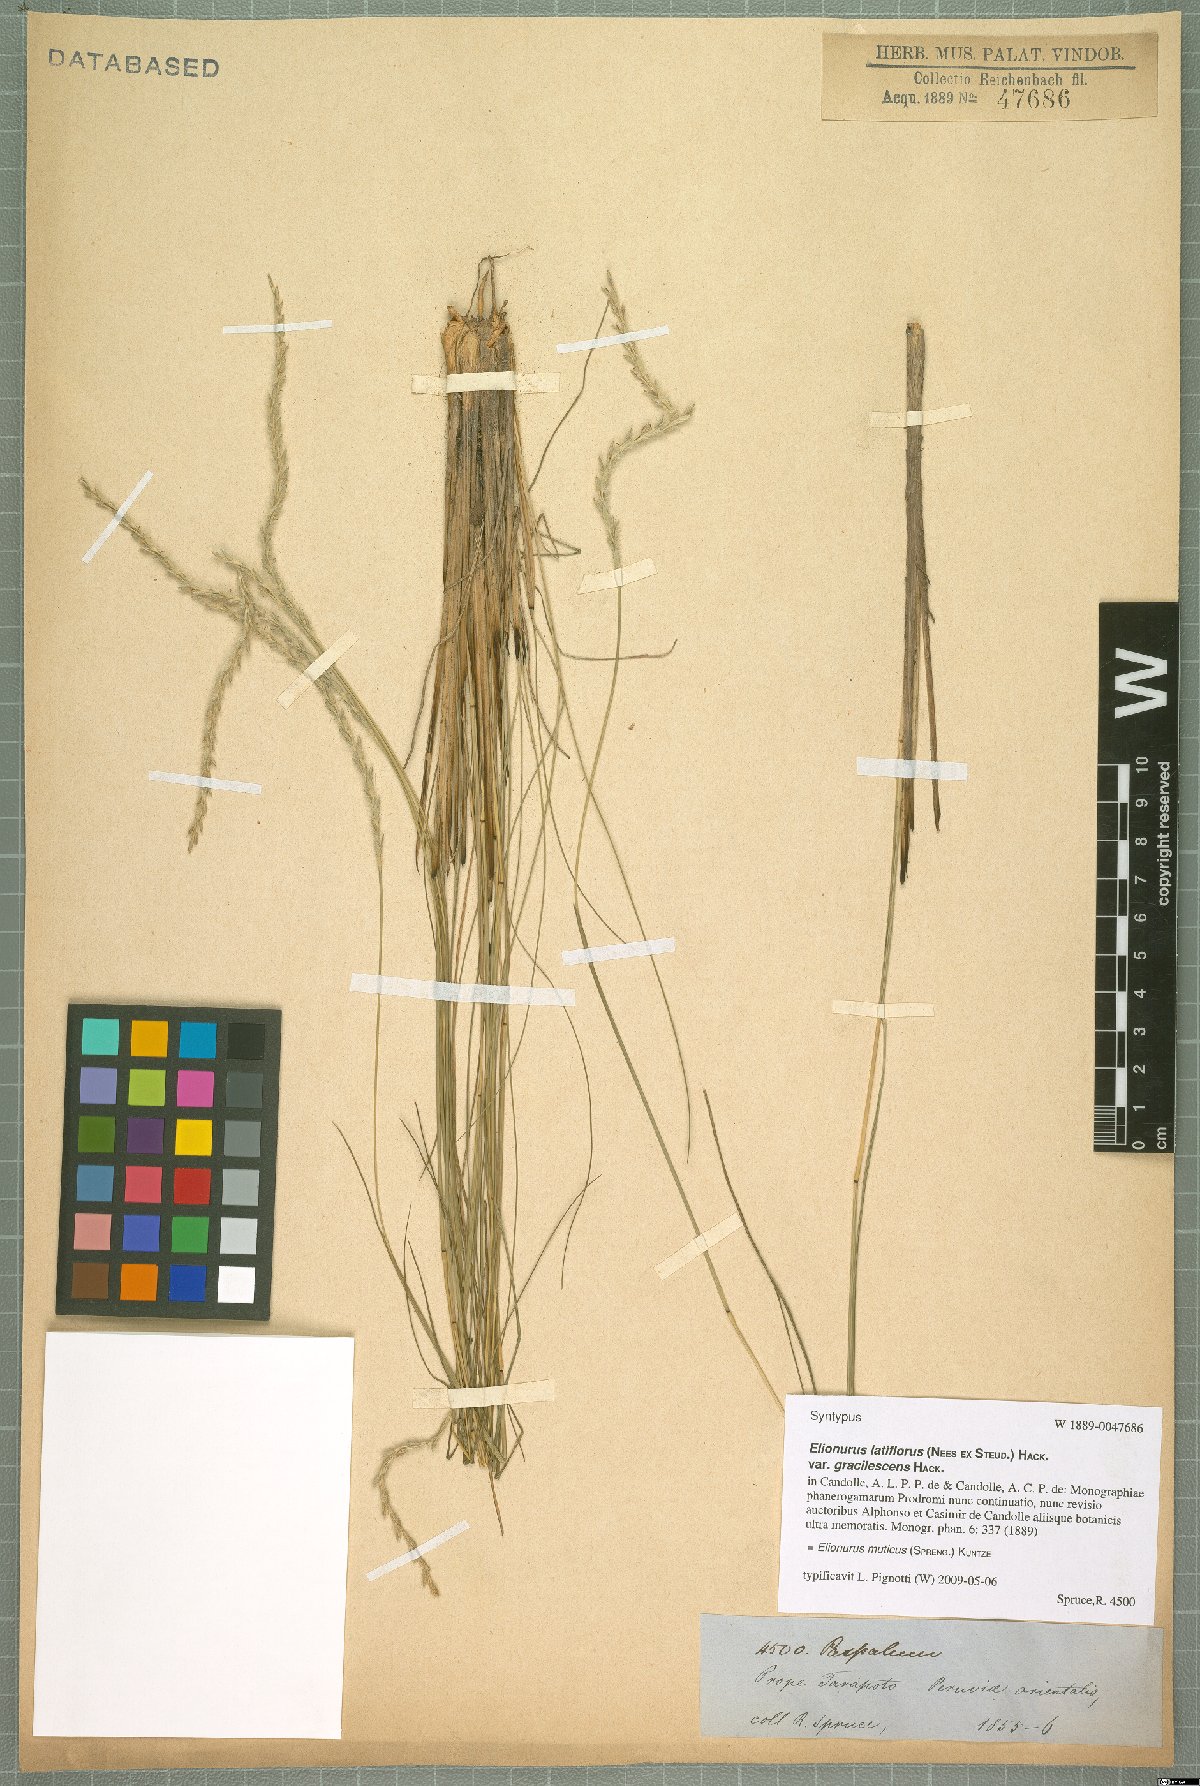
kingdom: Plantae
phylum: Tracheophyta
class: Liliopsida
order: Poales
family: Poaceae
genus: Elionurus
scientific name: Elionurus muticus
